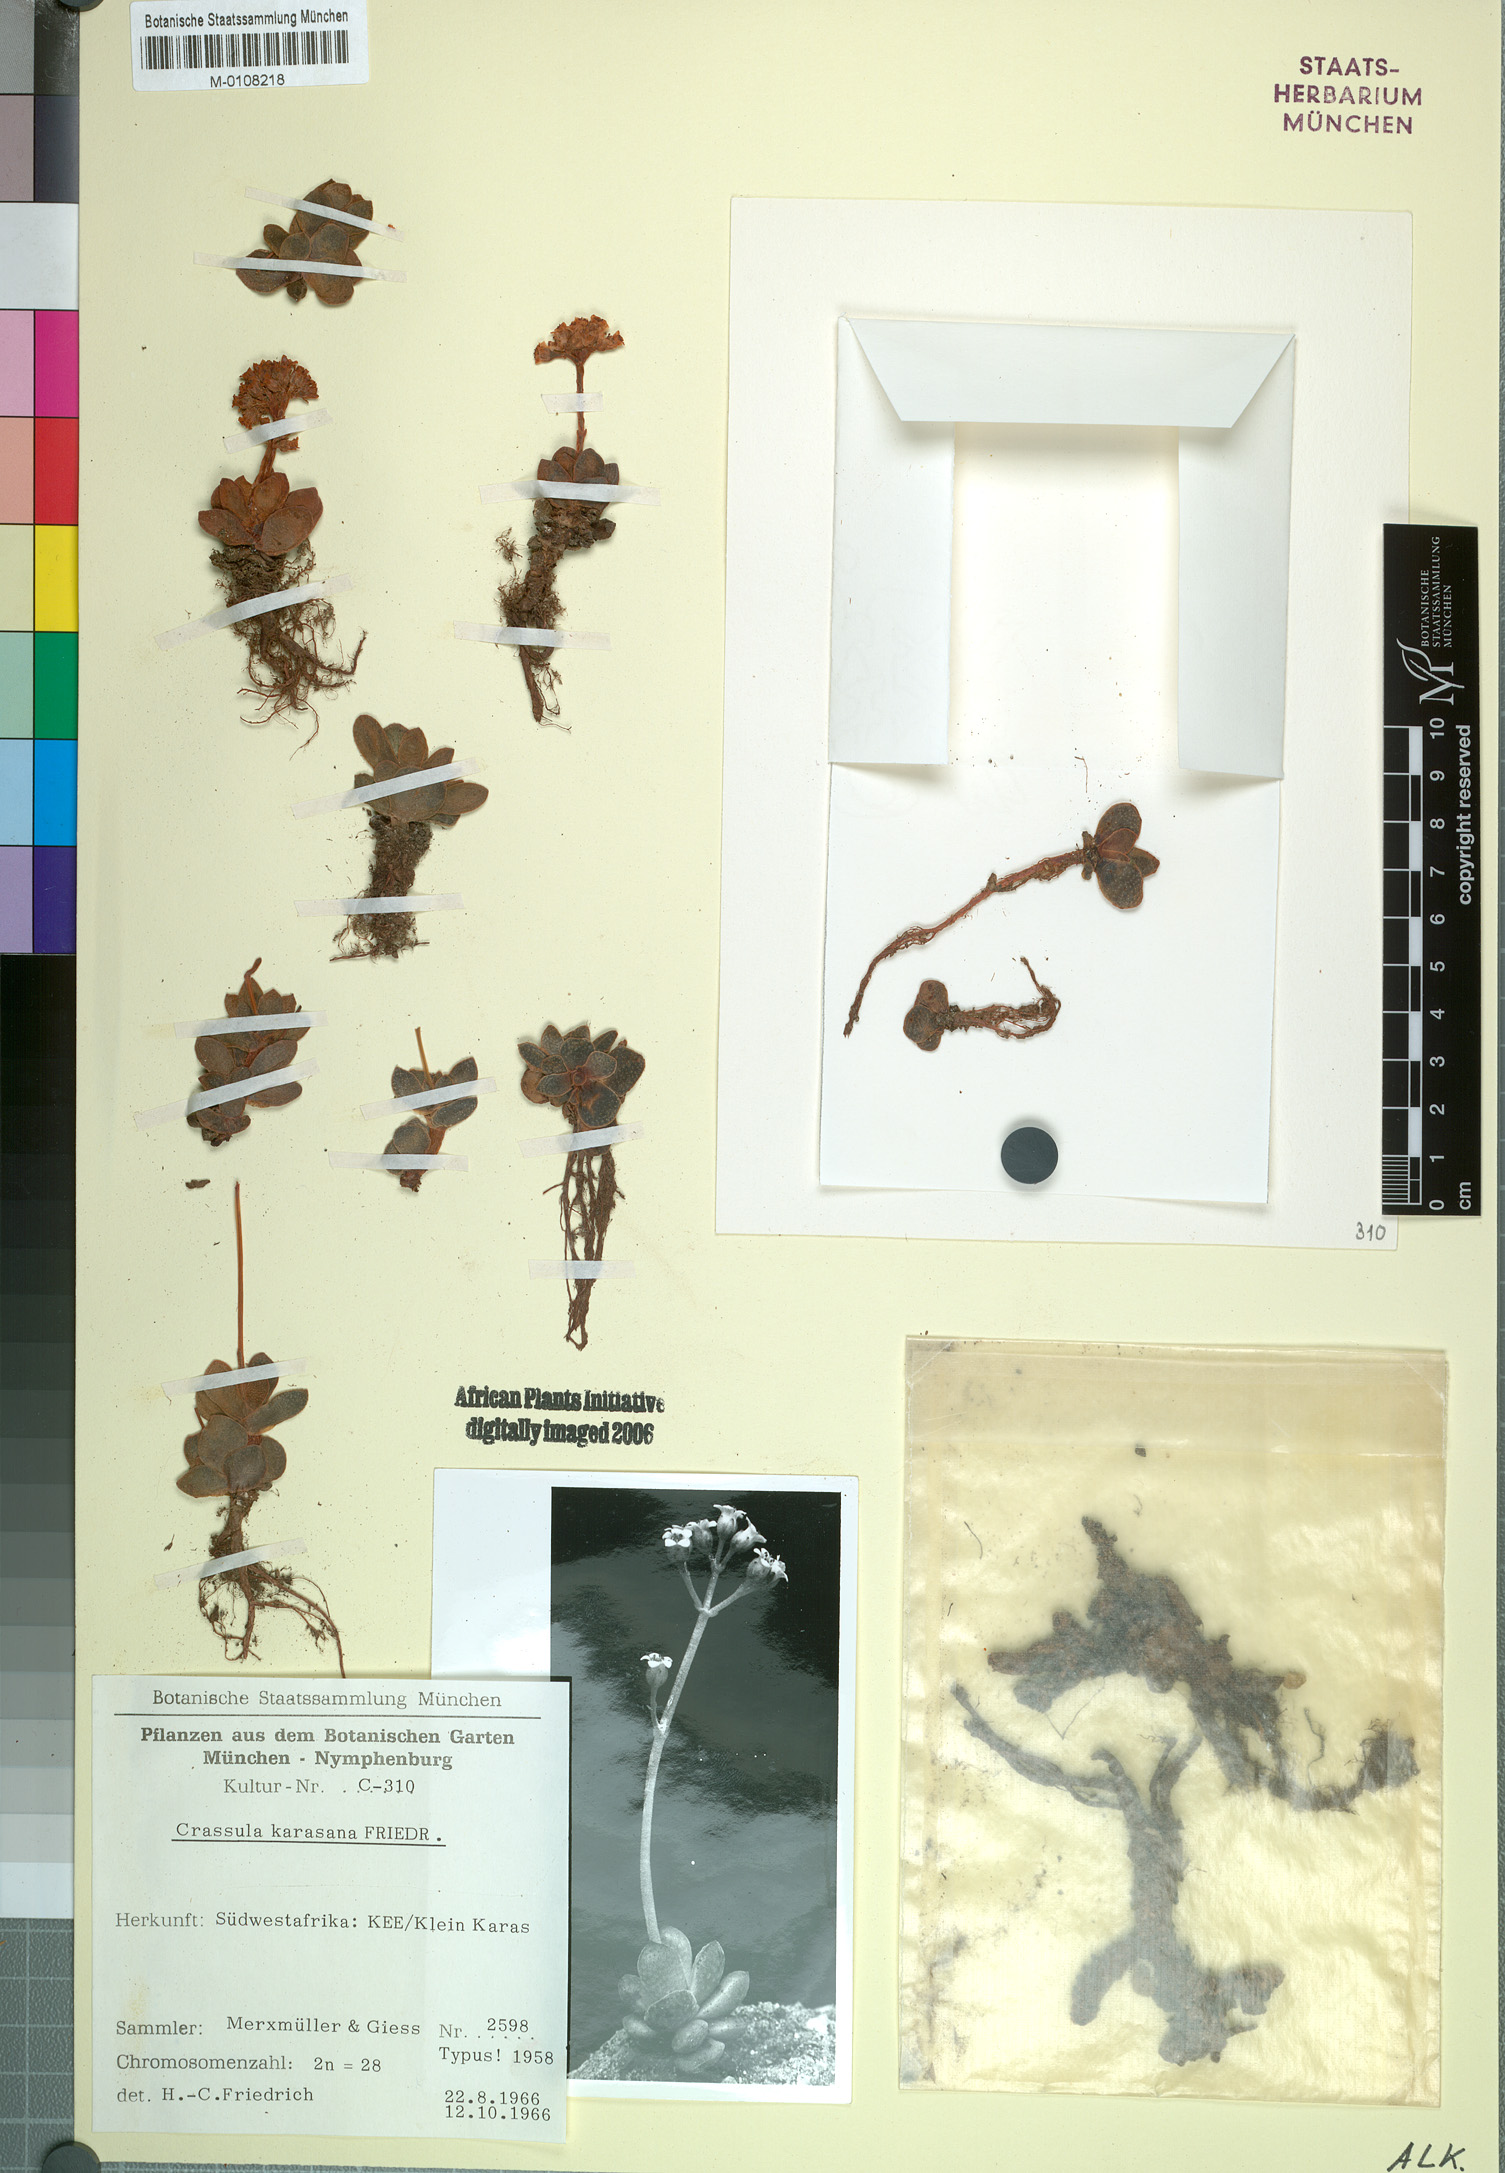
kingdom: Plantae
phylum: Tracheophyta
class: Magnoliopsida
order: Saxifragales
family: Crassulaceae
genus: Crassula
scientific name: Crassula ausensis
